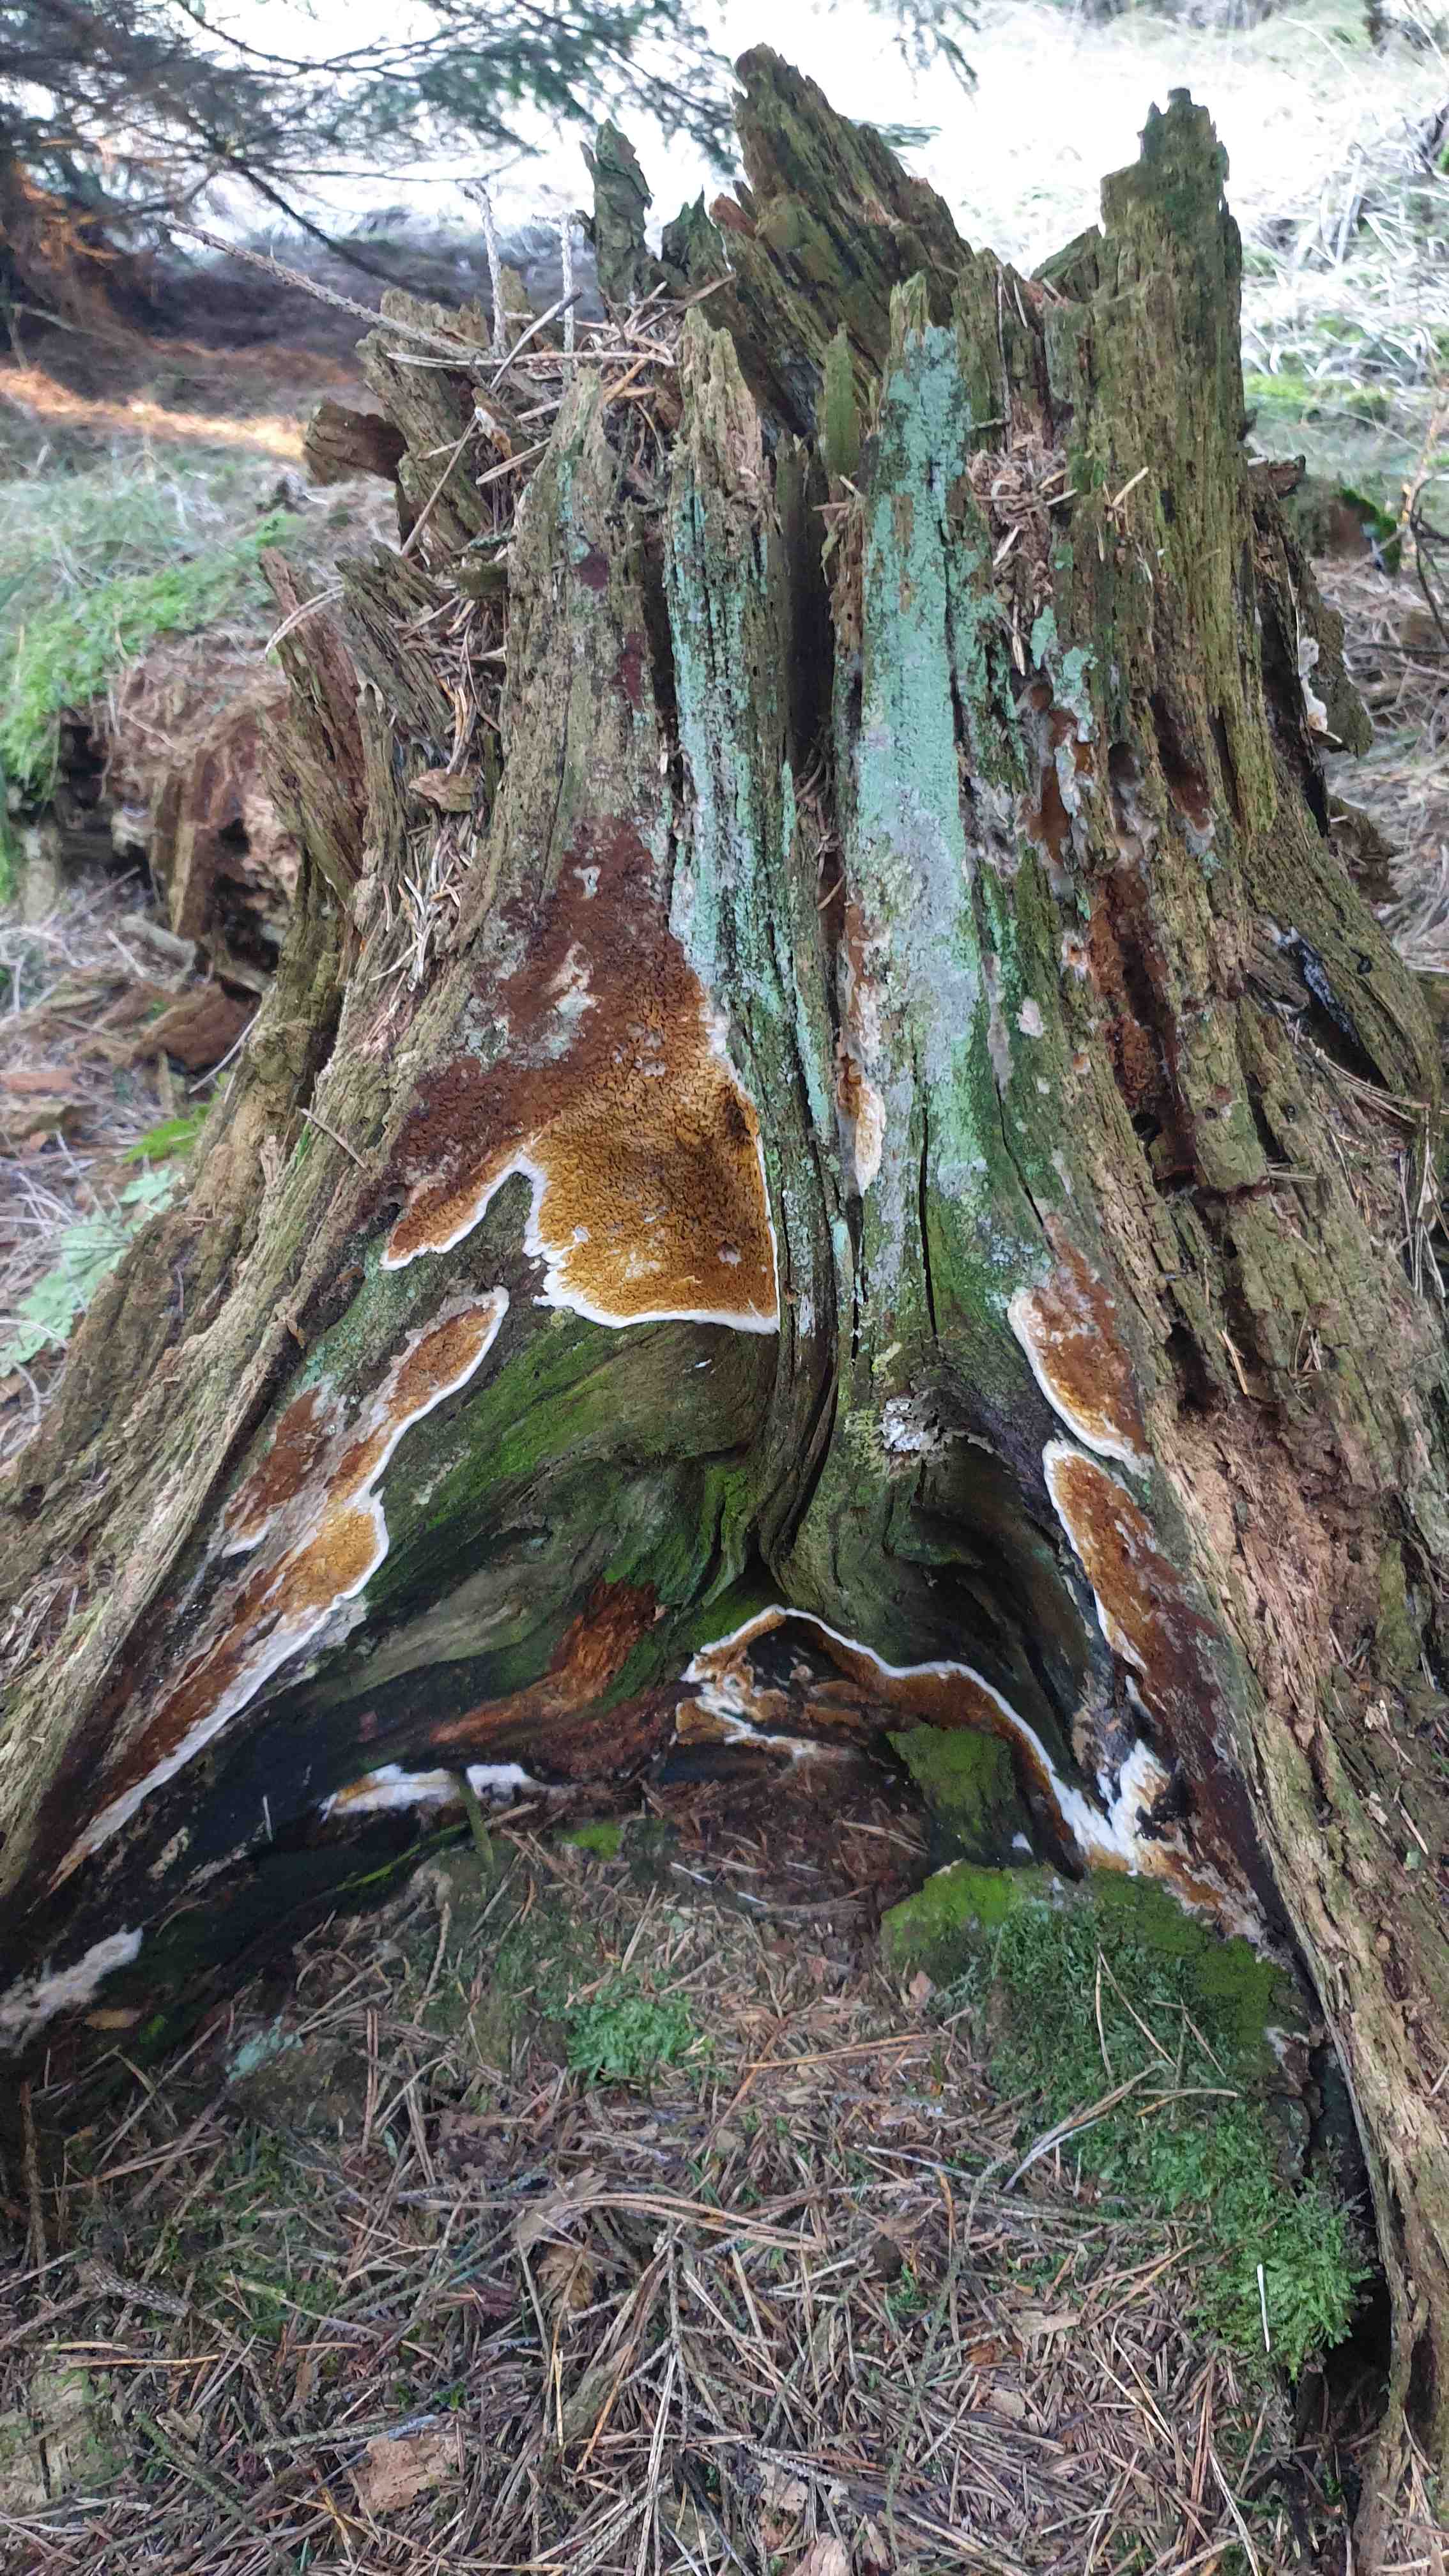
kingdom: Fungi
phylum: Basidiomycota
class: Agaricomycetes
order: Boletales
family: Serpulaceae
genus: Serpula
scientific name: Serpula himantioides
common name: tyndkødet hussvamp
